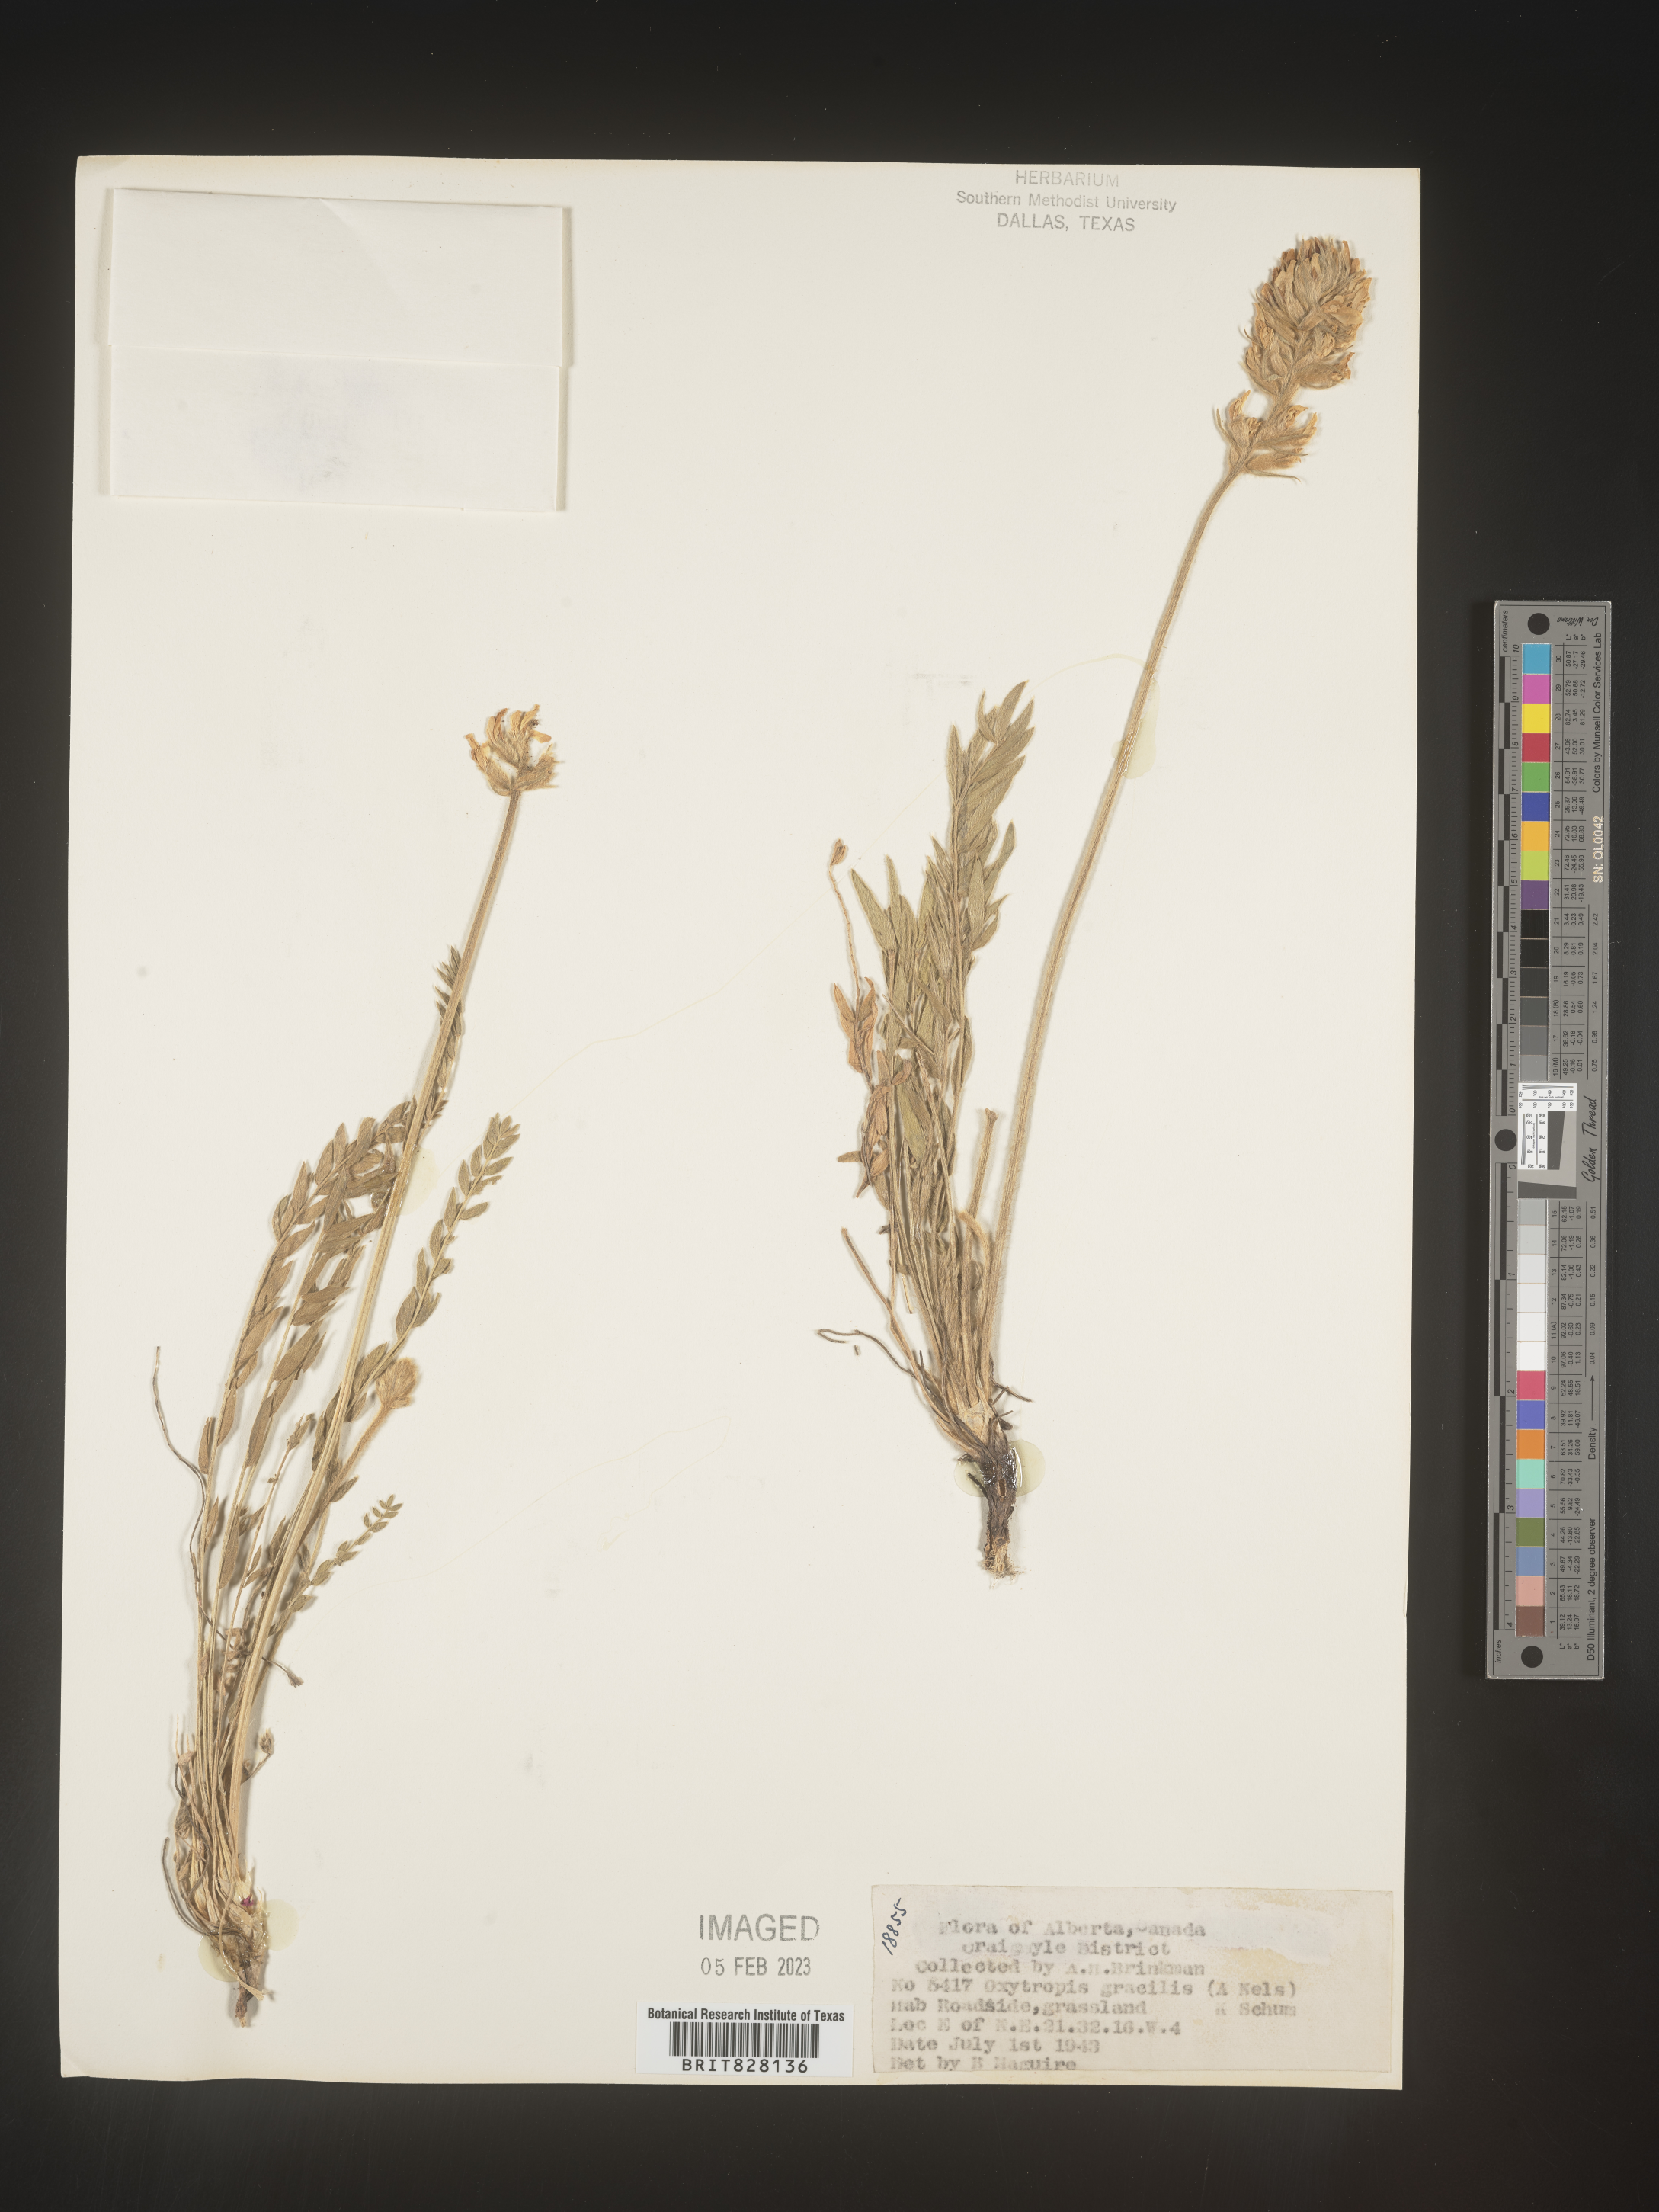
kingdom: Plantae
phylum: Tracheophyta
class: Magnoliopsida
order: Fabales
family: Fabaceae
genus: Oxytropis
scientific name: Oxytropis
